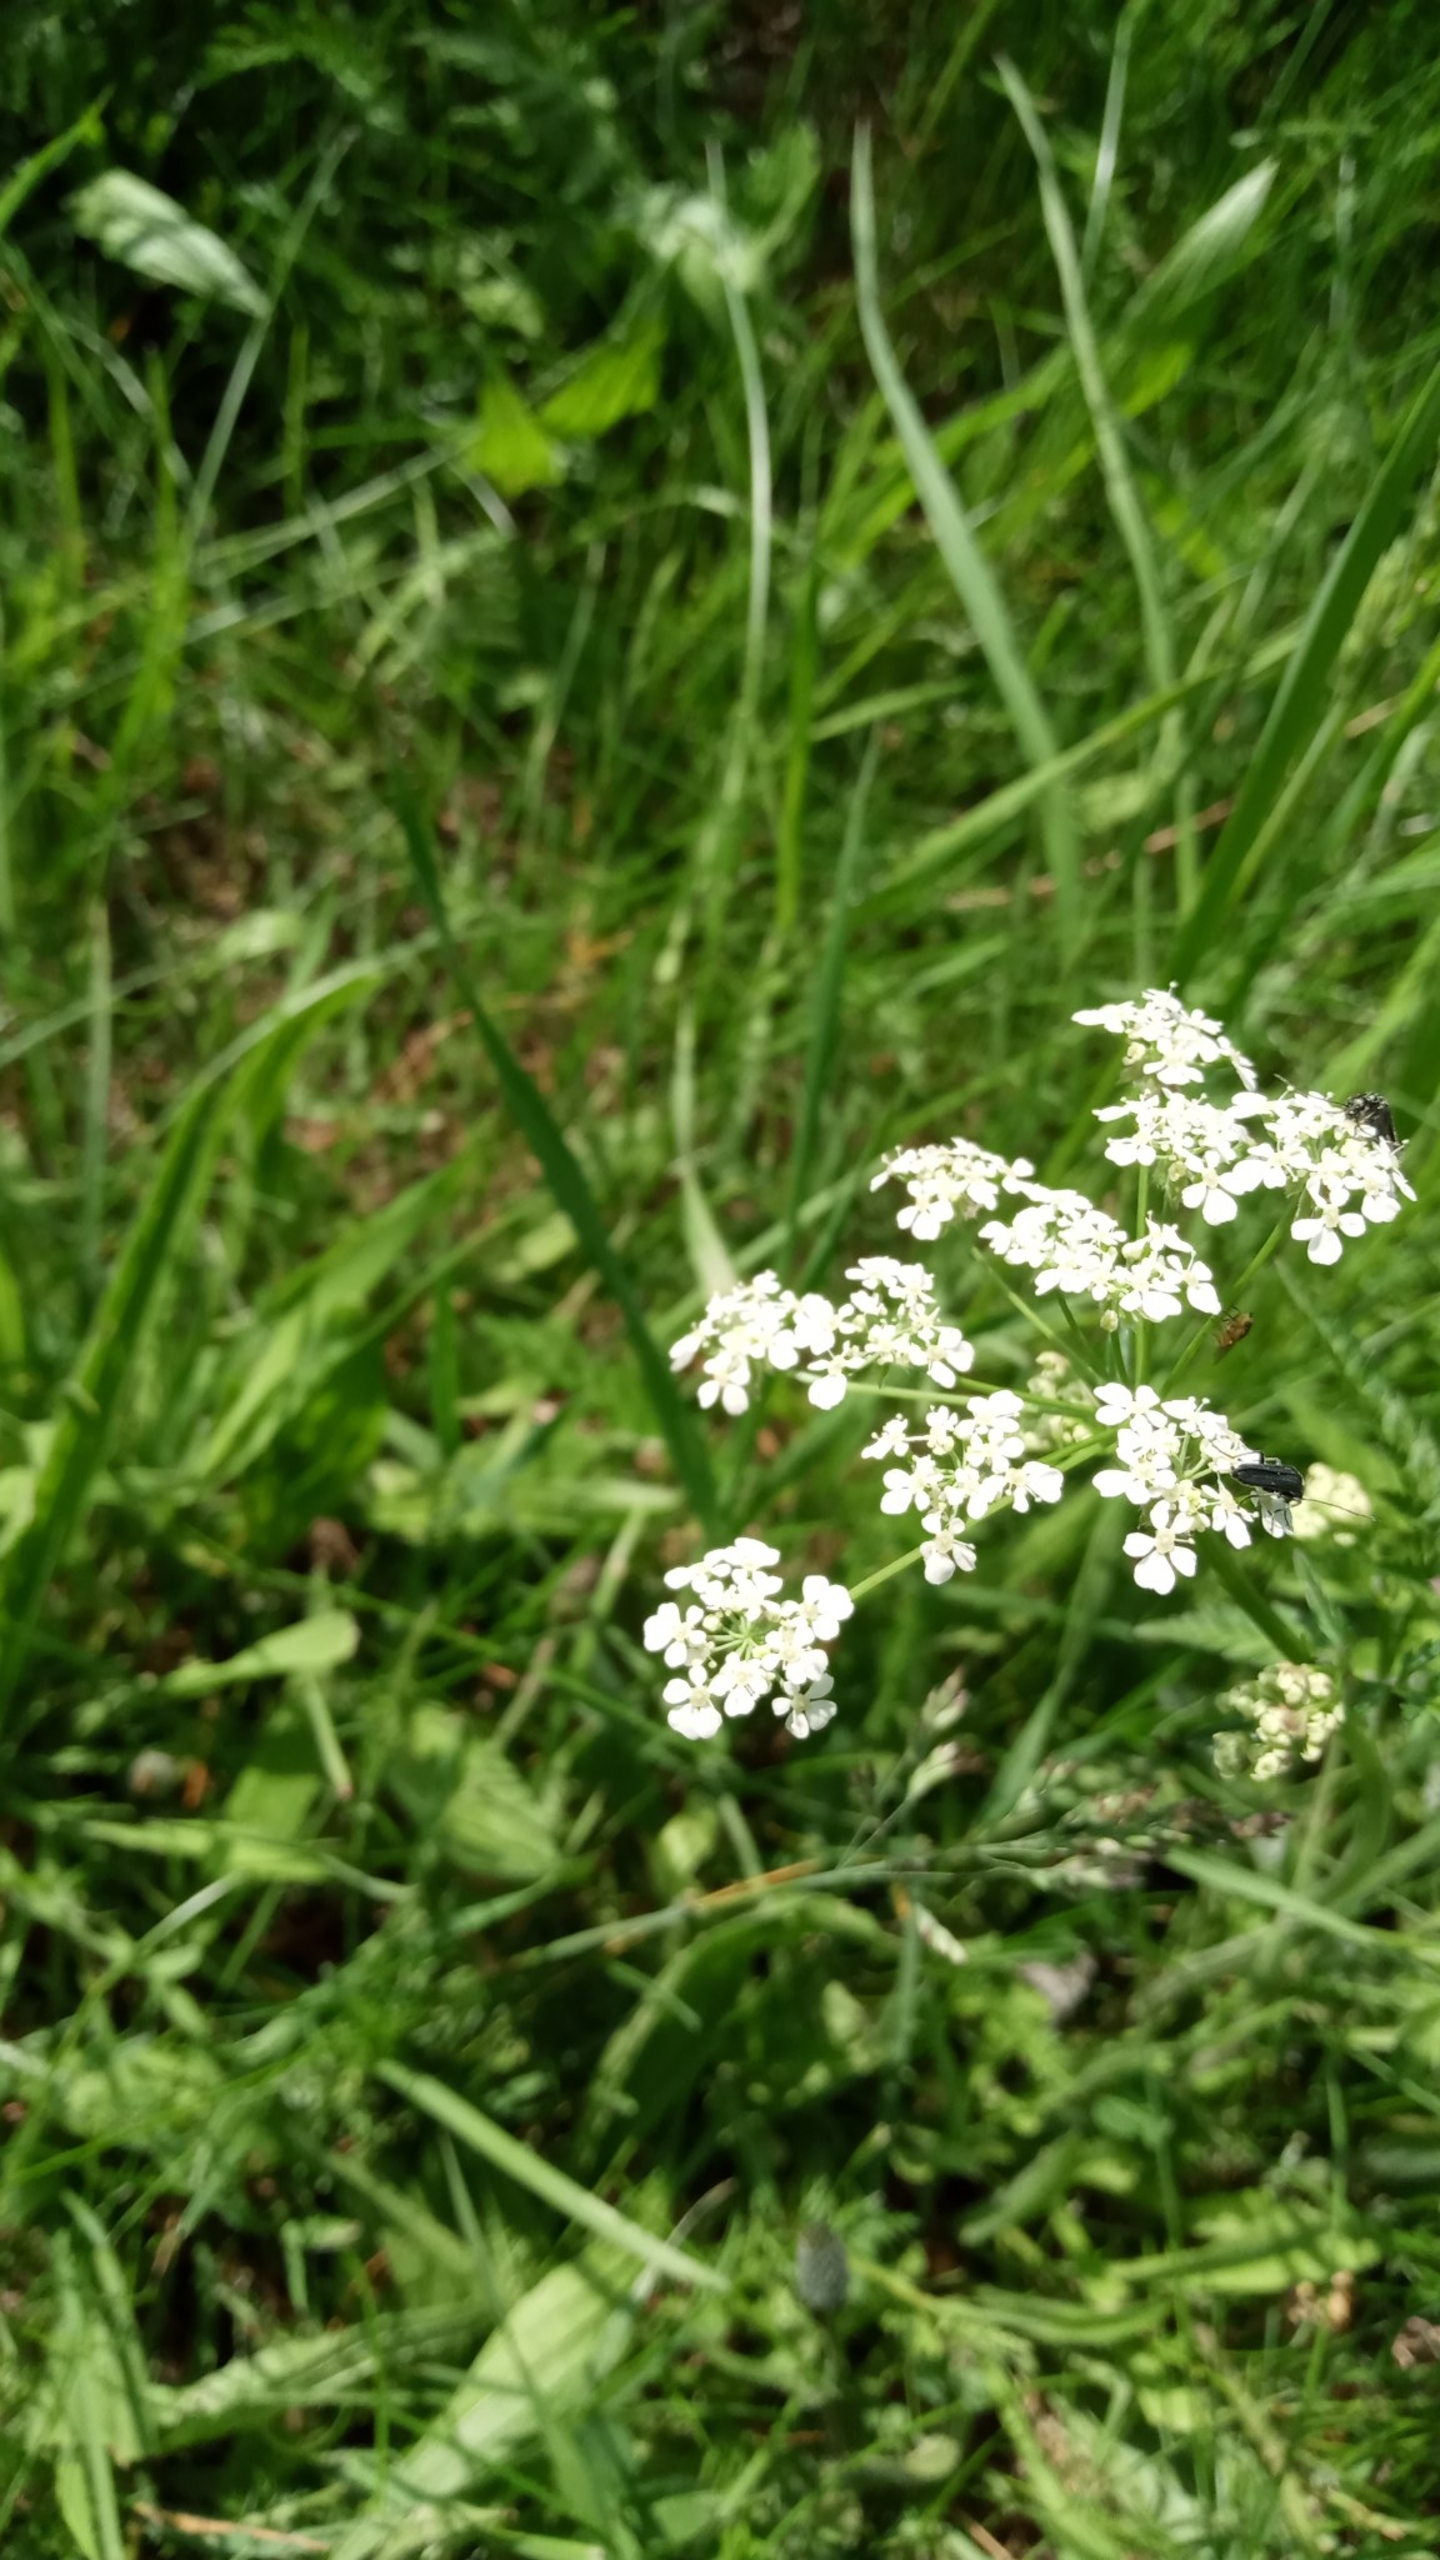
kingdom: Plantae
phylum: Tracheophyta
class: Magnoliopsida
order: Apiales
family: Apiaceae
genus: Anthriscus
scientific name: Anthriscus sylvestris
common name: Vild kørvel
